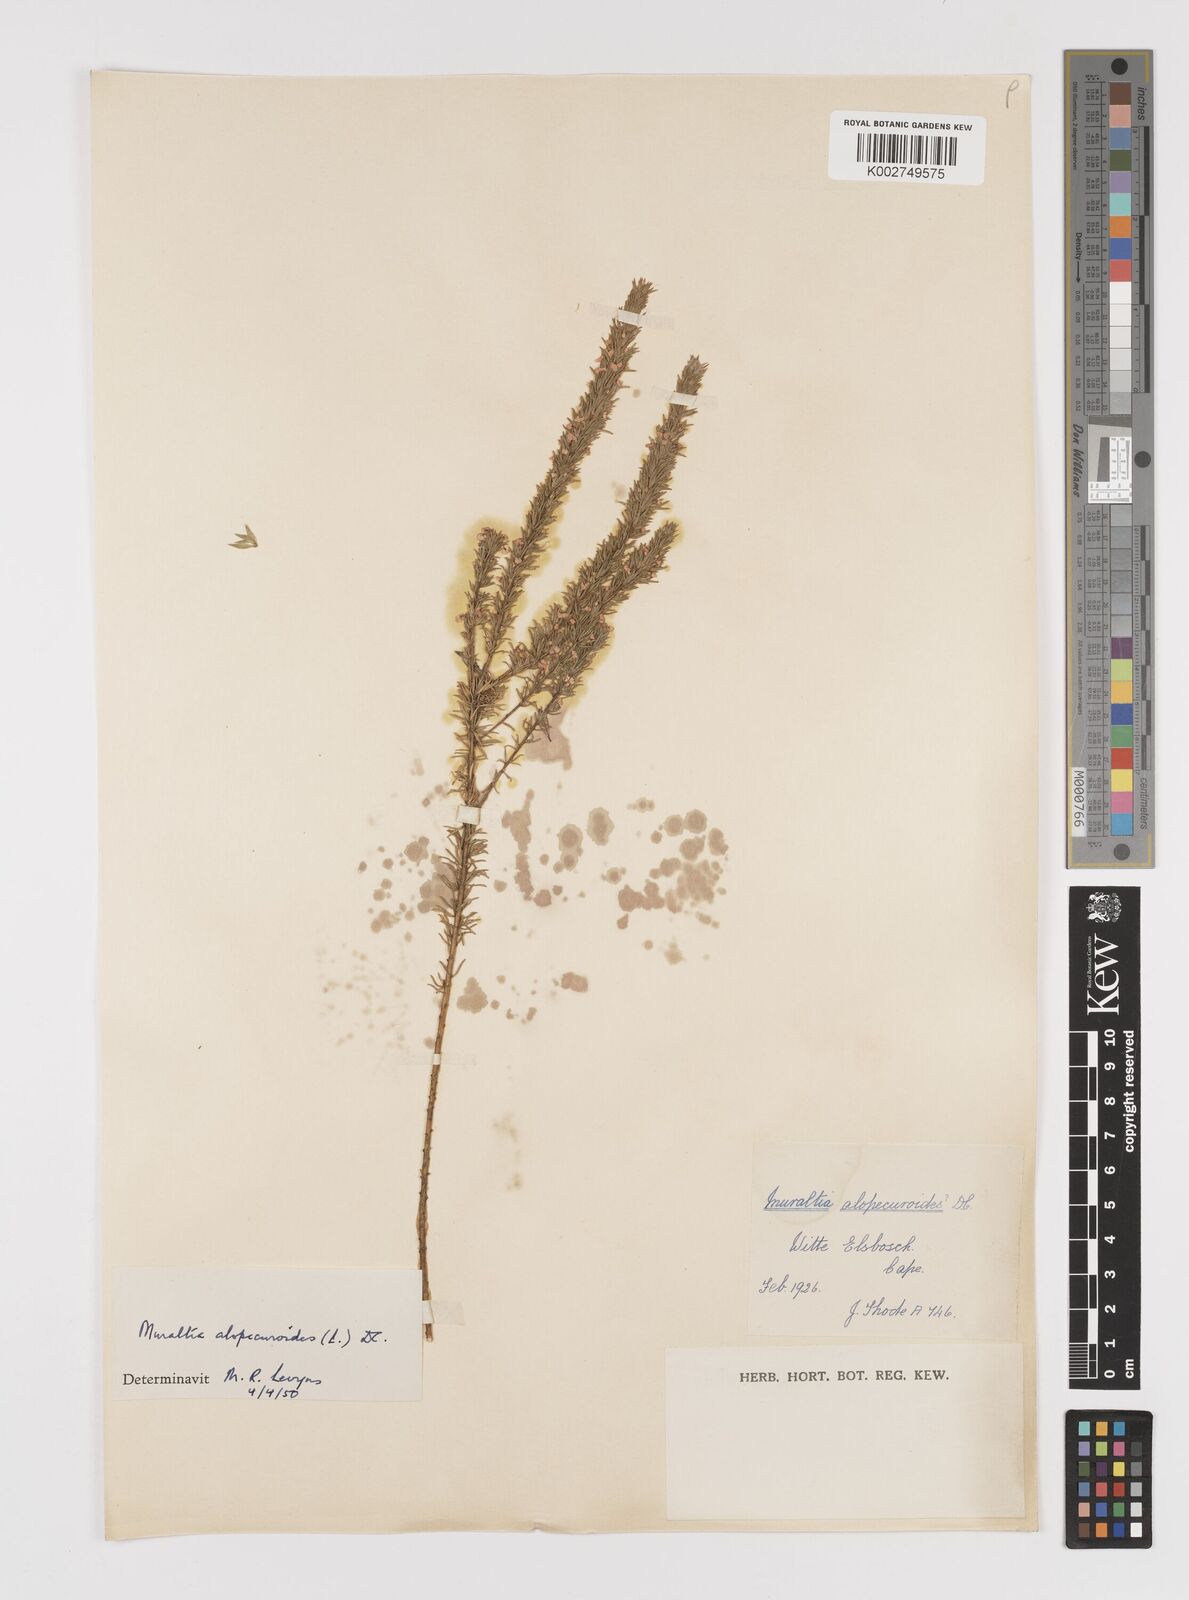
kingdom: Plantae
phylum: Tracheophyta
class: Magnoliopsida
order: Fabales
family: Polygalaceae
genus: Muraltia
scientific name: Muraltia alopecuroides
